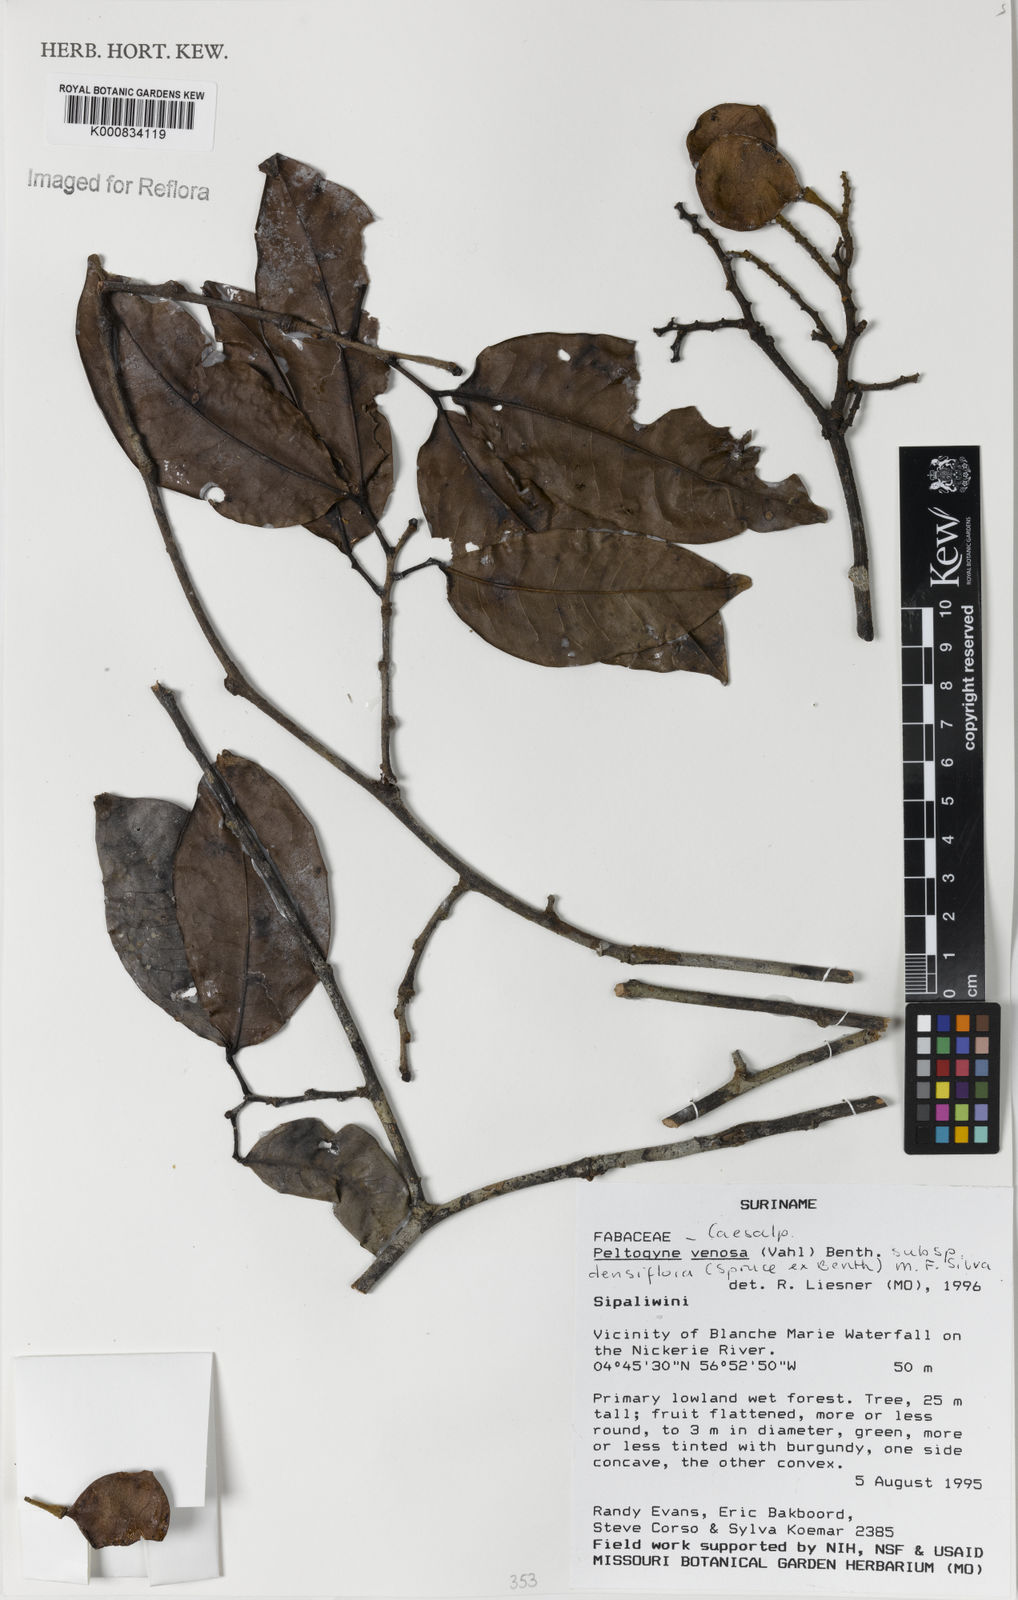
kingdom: Plantae
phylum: Tracheophyta
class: Magnoliopsida
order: Fabales
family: Fabaceae
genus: Peltogyne
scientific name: Peltogyne venosa
